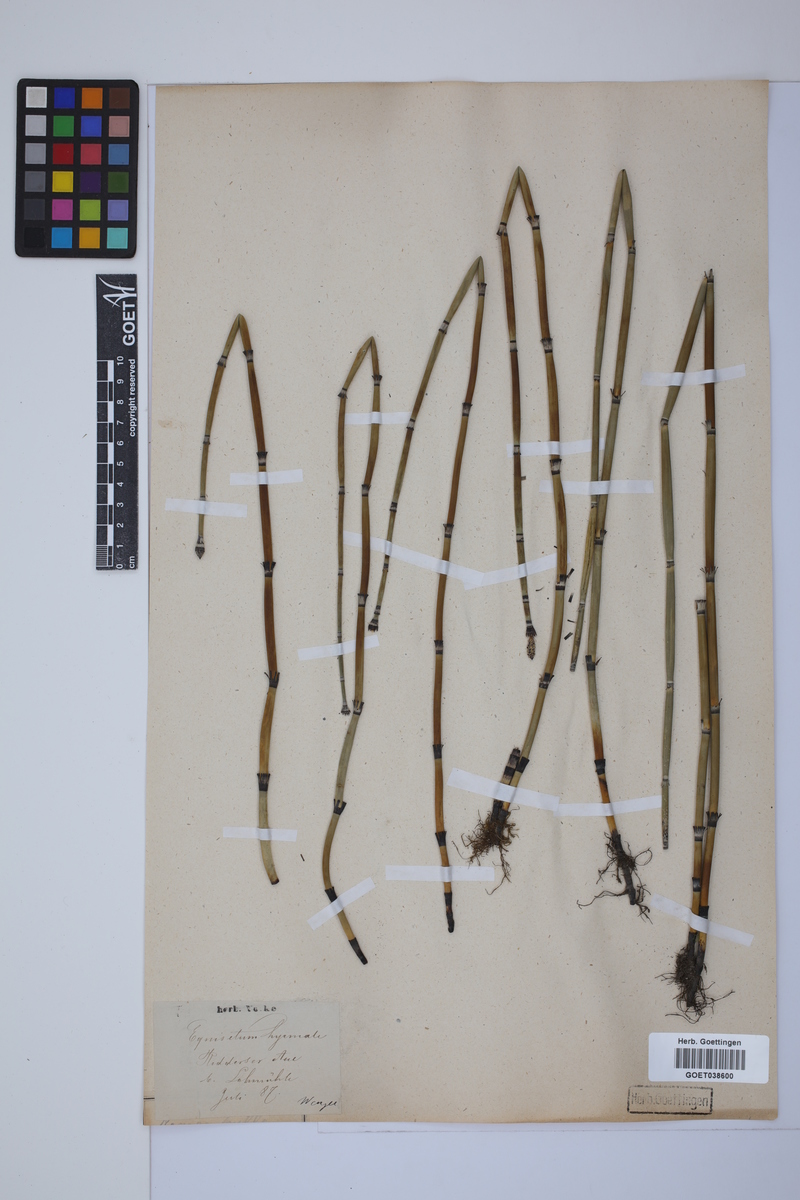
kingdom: Plantae
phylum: Tracheophyta
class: Polypodiopsida
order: Equisetales
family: Equisetaceae
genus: Equisetum
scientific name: Equisetum hyemale
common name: Rough horsetail
